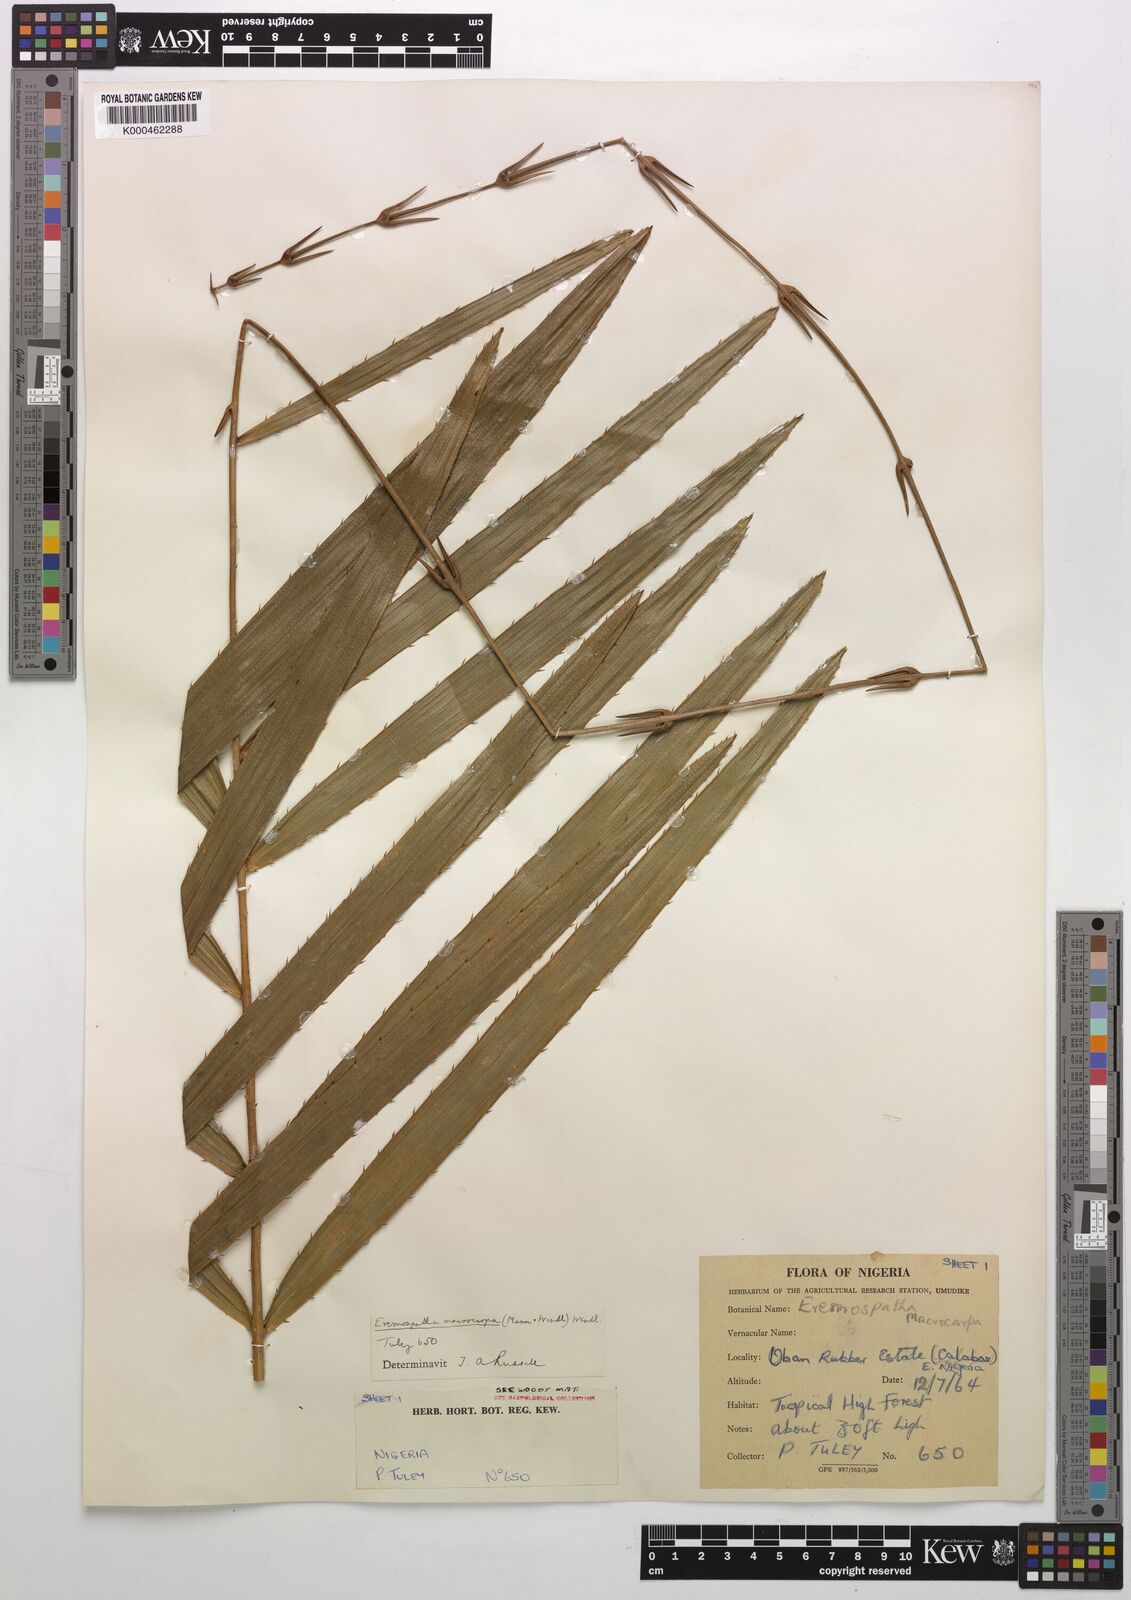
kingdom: Plantae
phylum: Tracheophyta
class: Liliopsida
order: Arecales
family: Arecaceae
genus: Eremospatha
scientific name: Eremospatha
